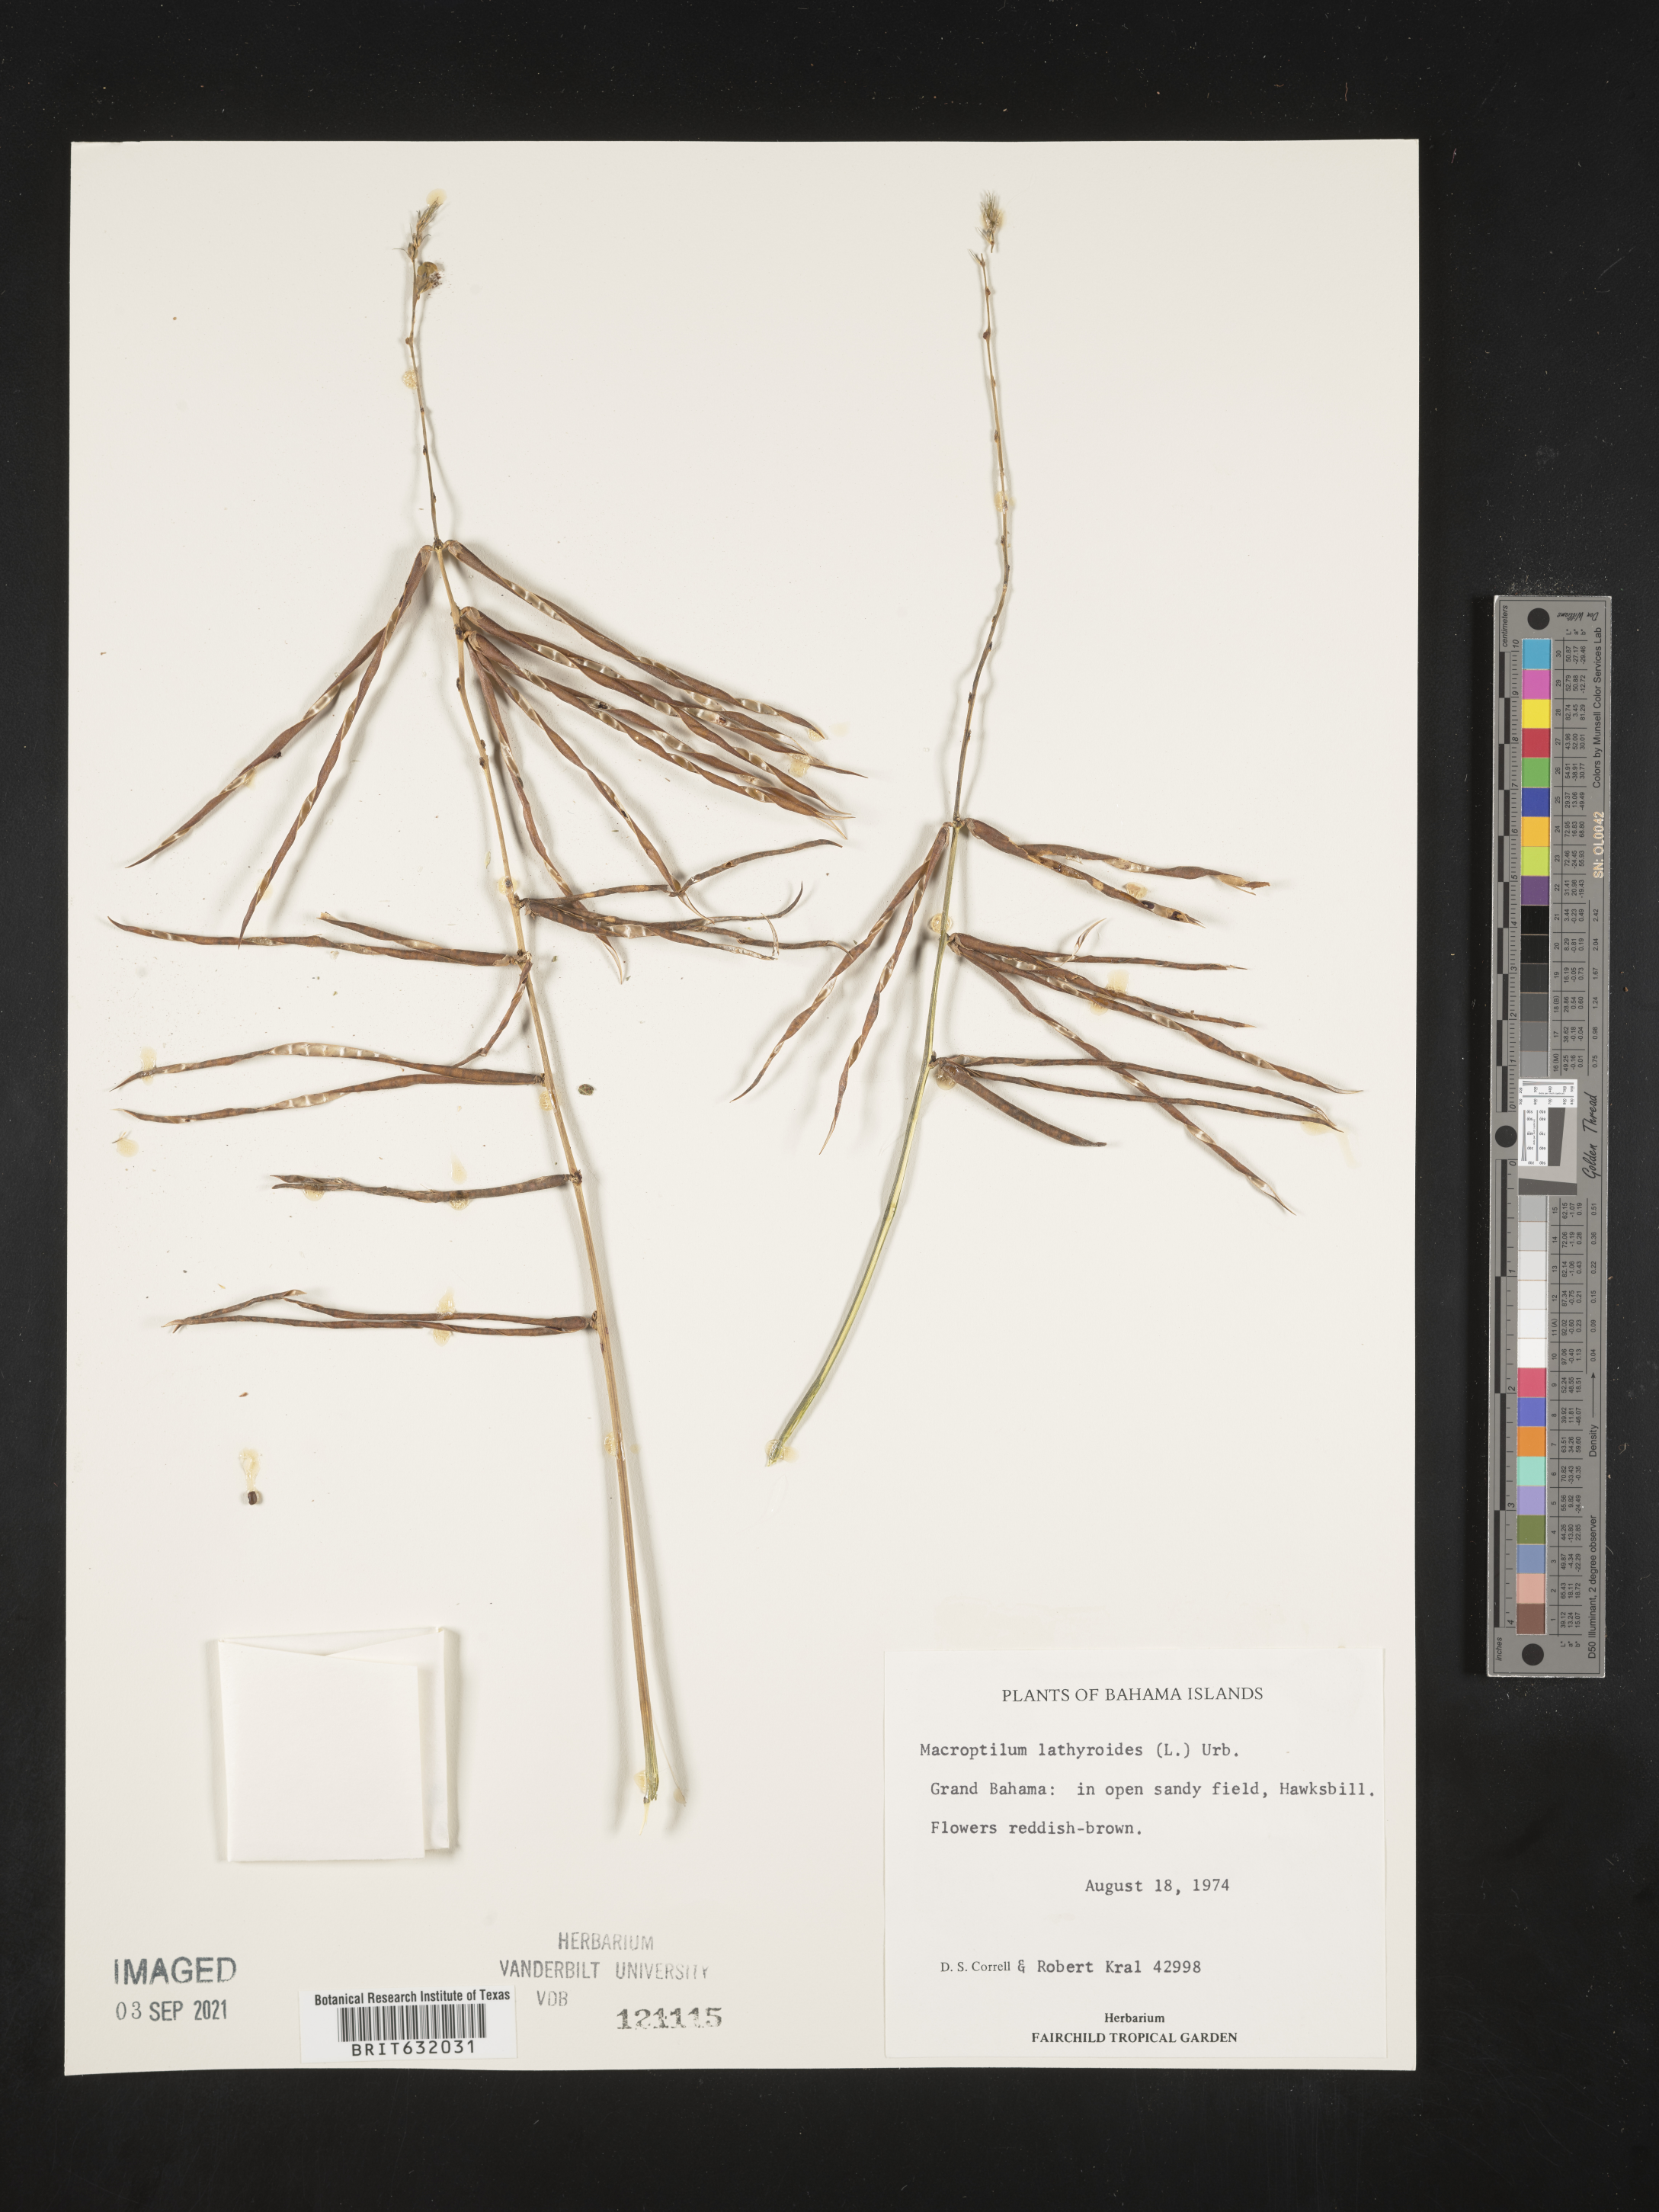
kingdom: Plantae
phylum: Tracheophyta
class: Magnoliopsida
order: Fabales
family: Fabaceae
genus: Macroptilium
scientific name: Macroptilium
